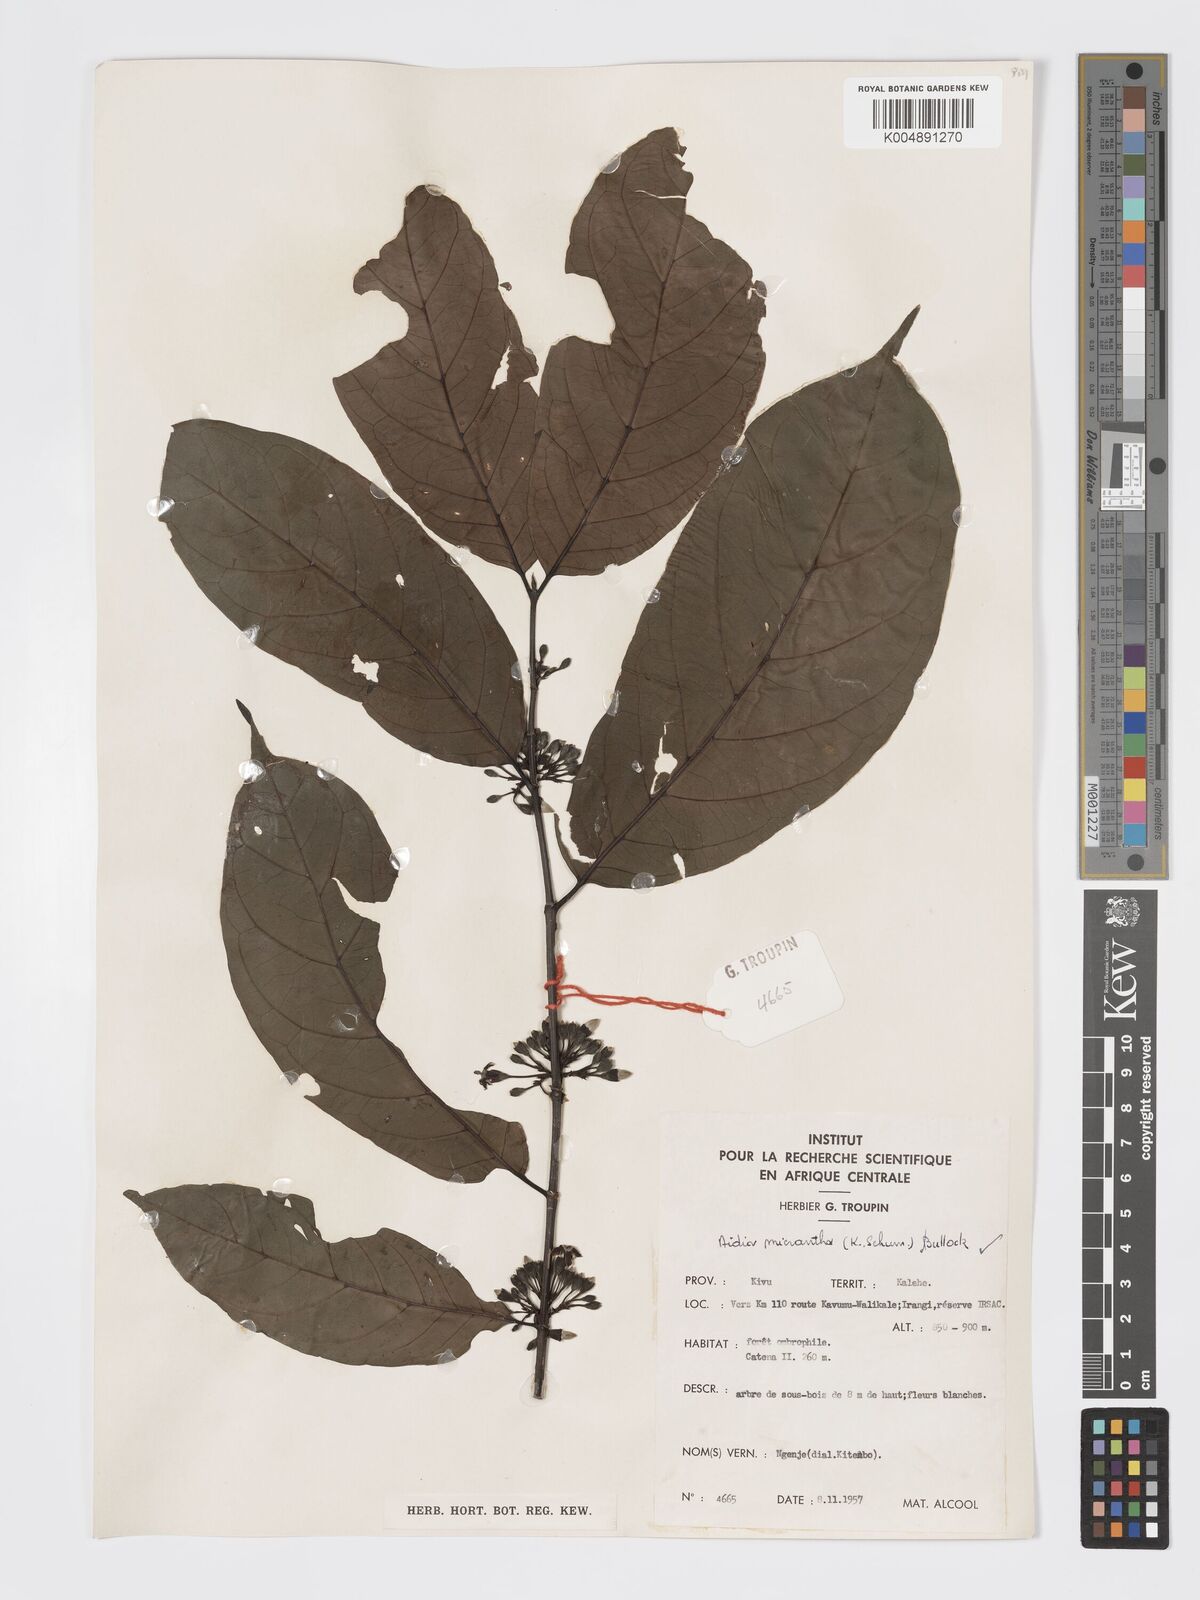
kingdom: Plantae
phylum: Tracheophyta
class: Magnoliopsida
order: Gentianales
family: Rubiaceae
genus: Aidia
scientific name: Aidia micrantha
